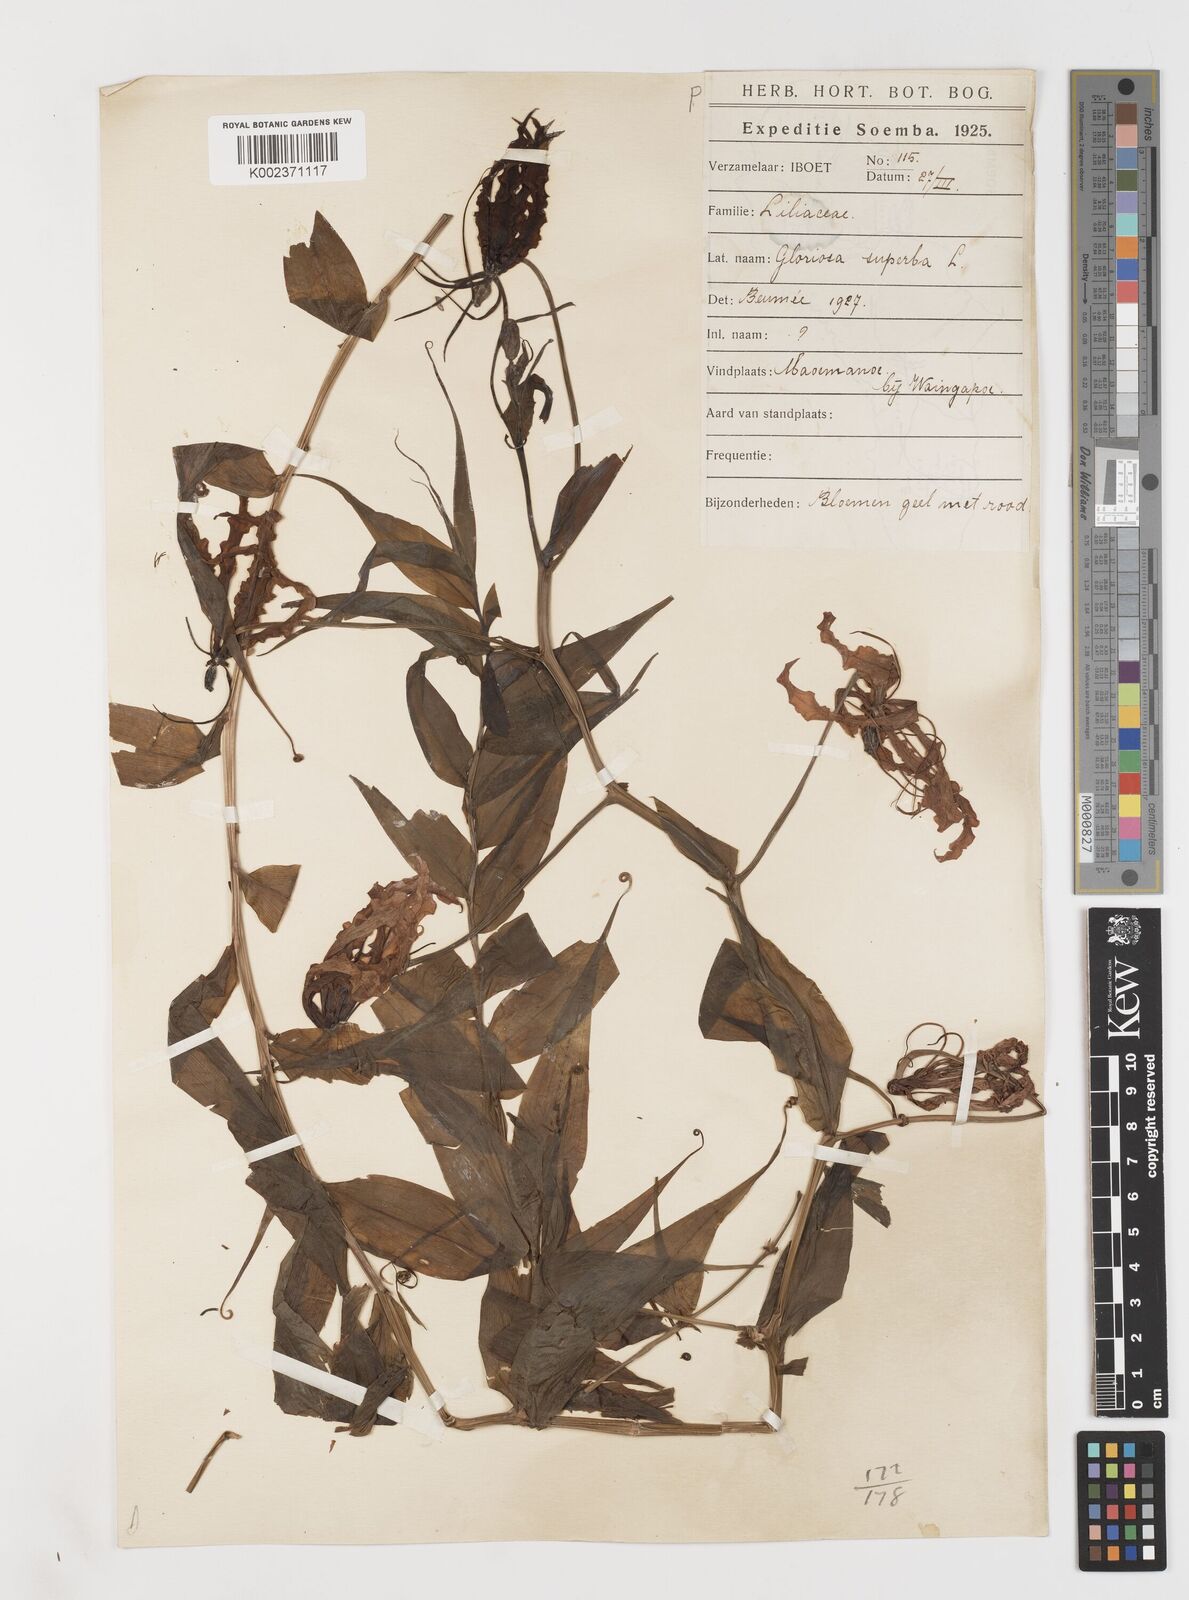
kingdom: Plantae
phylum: Tracheophyta
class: Liliopsida
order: Liliales
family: Colchicaceae
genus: Gloriosa
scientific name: Gloriosa superba
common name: Flame lily
